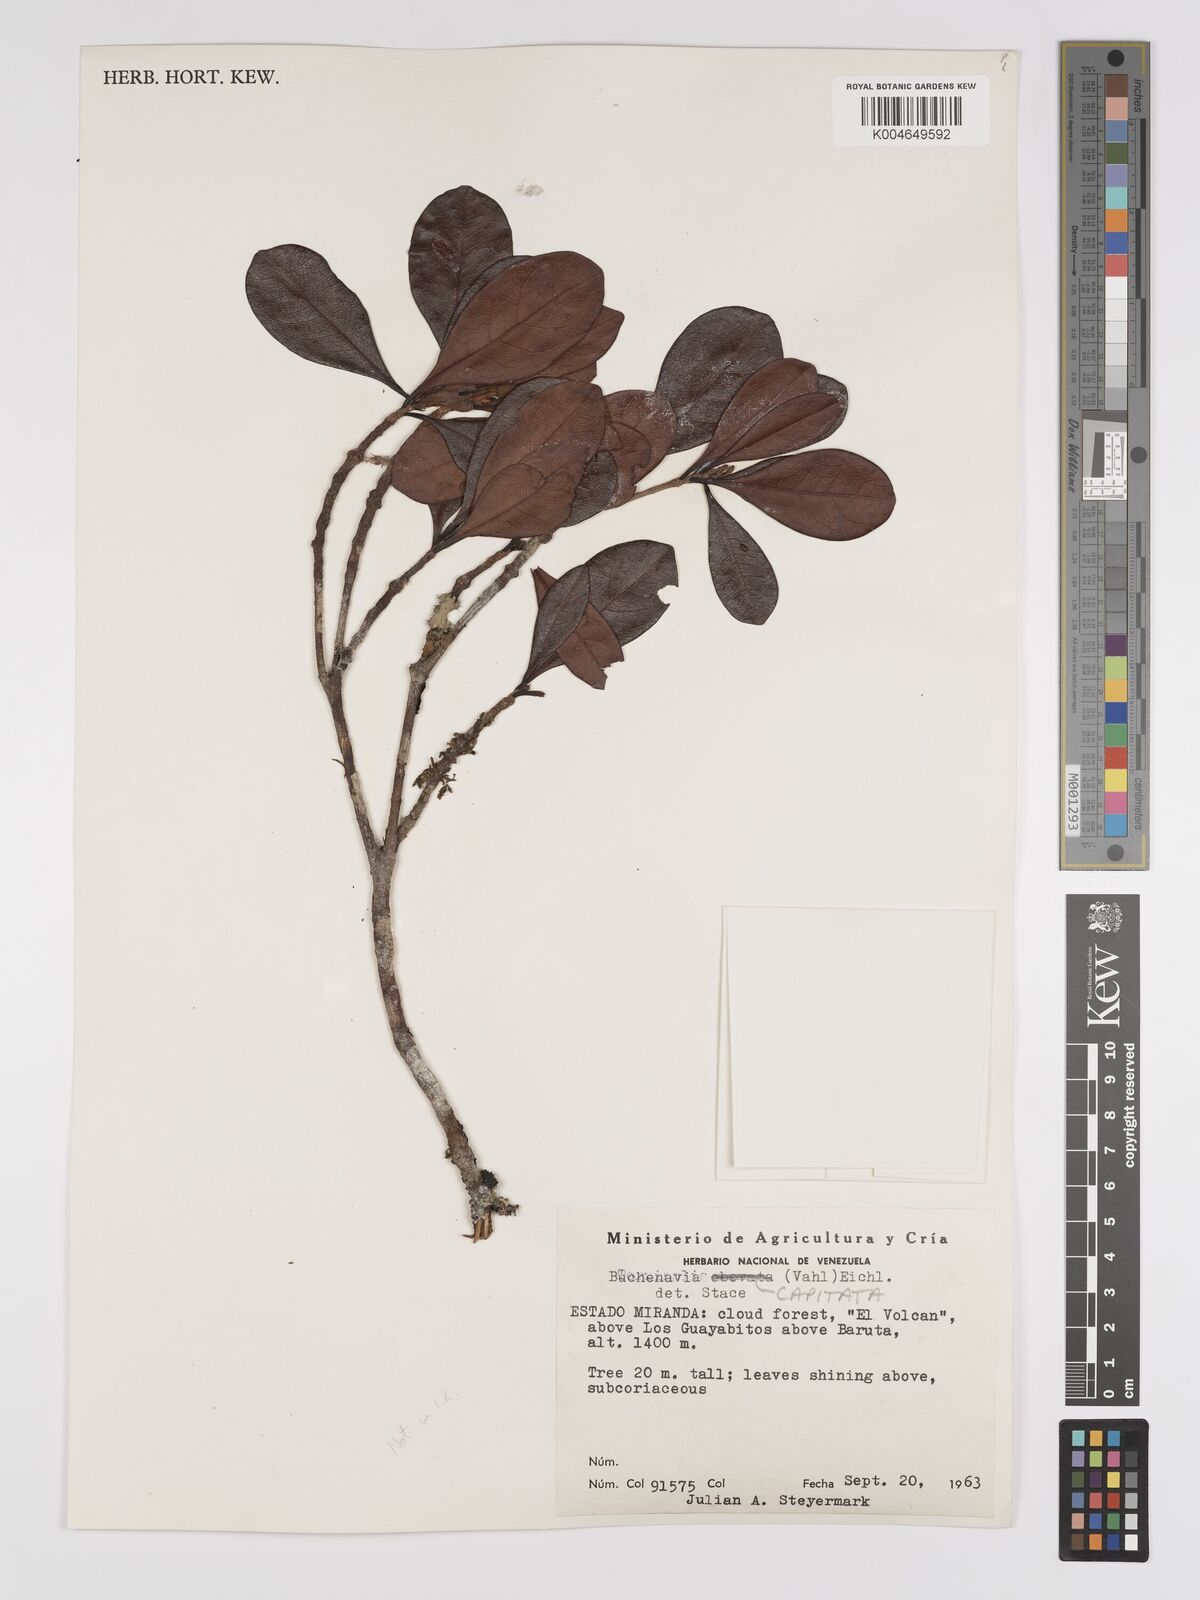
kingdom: Plantae
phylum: Tracheophyta
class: Magnoliopsida
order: Myrtales
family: Combretaceae
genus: Terminalia
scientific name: Terminalia tetraphylla
